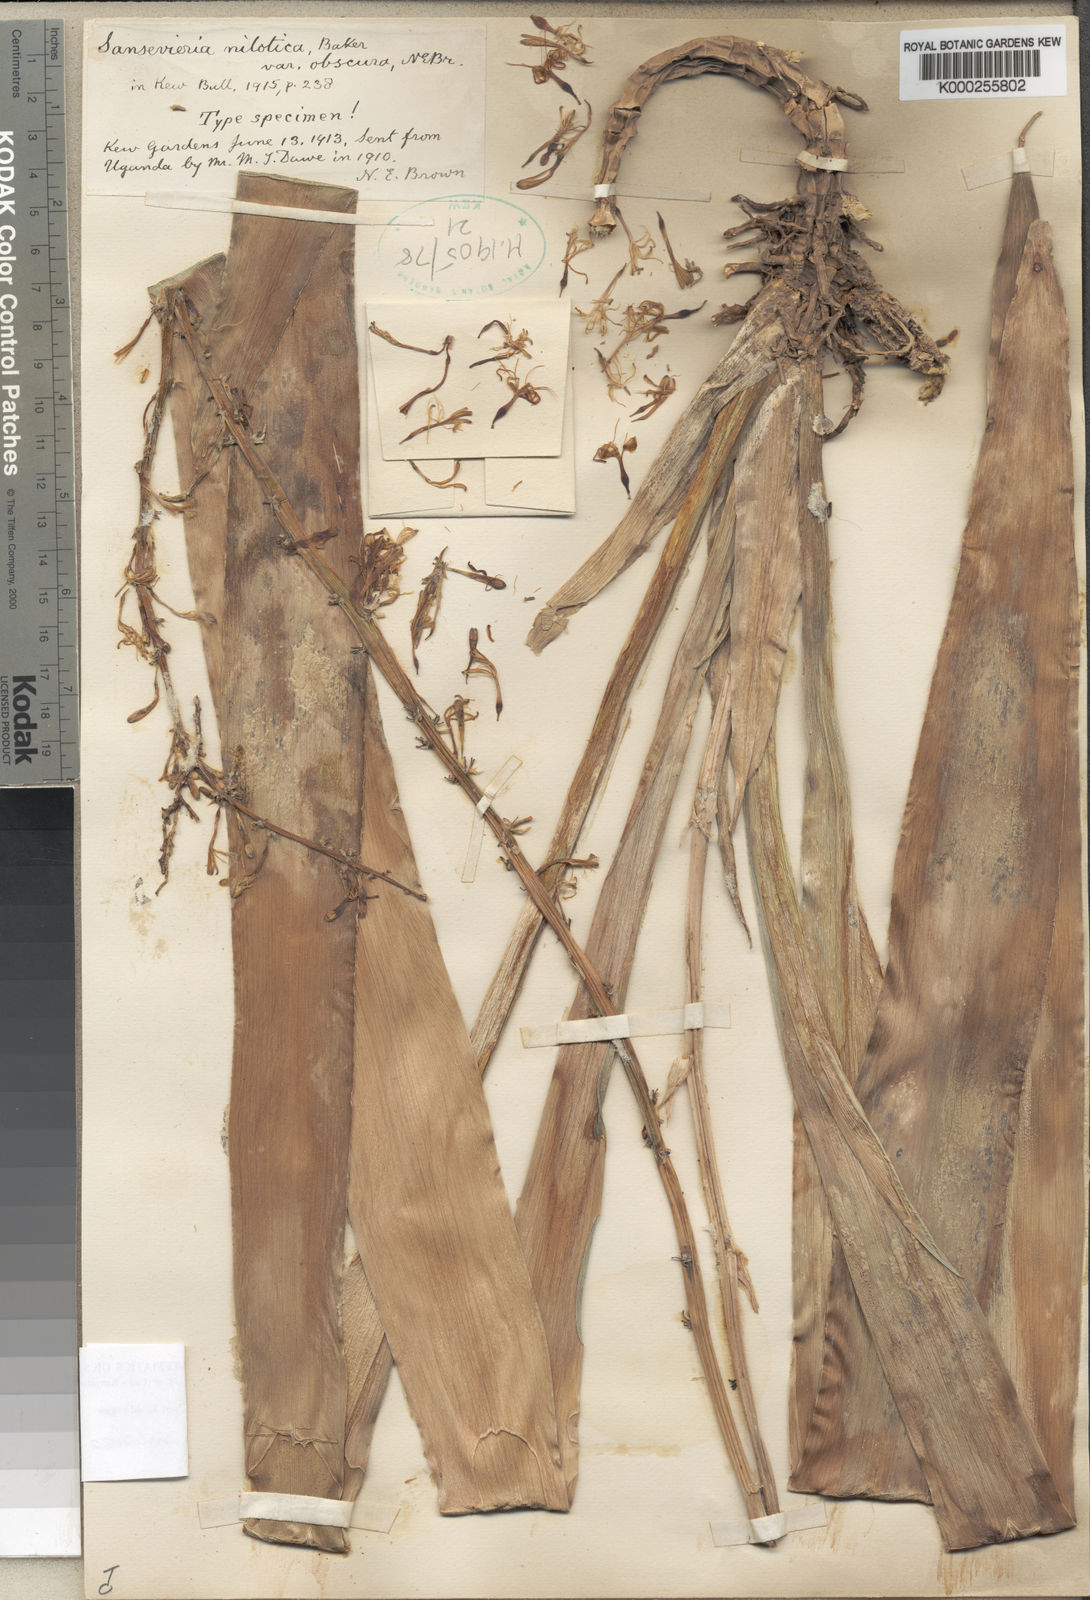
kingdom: Plantae
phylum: Tracheophyta
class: Liliopsida
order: Asparagales
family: Asparagaceae
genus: Dracaena
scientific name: Dracaena nilotica
